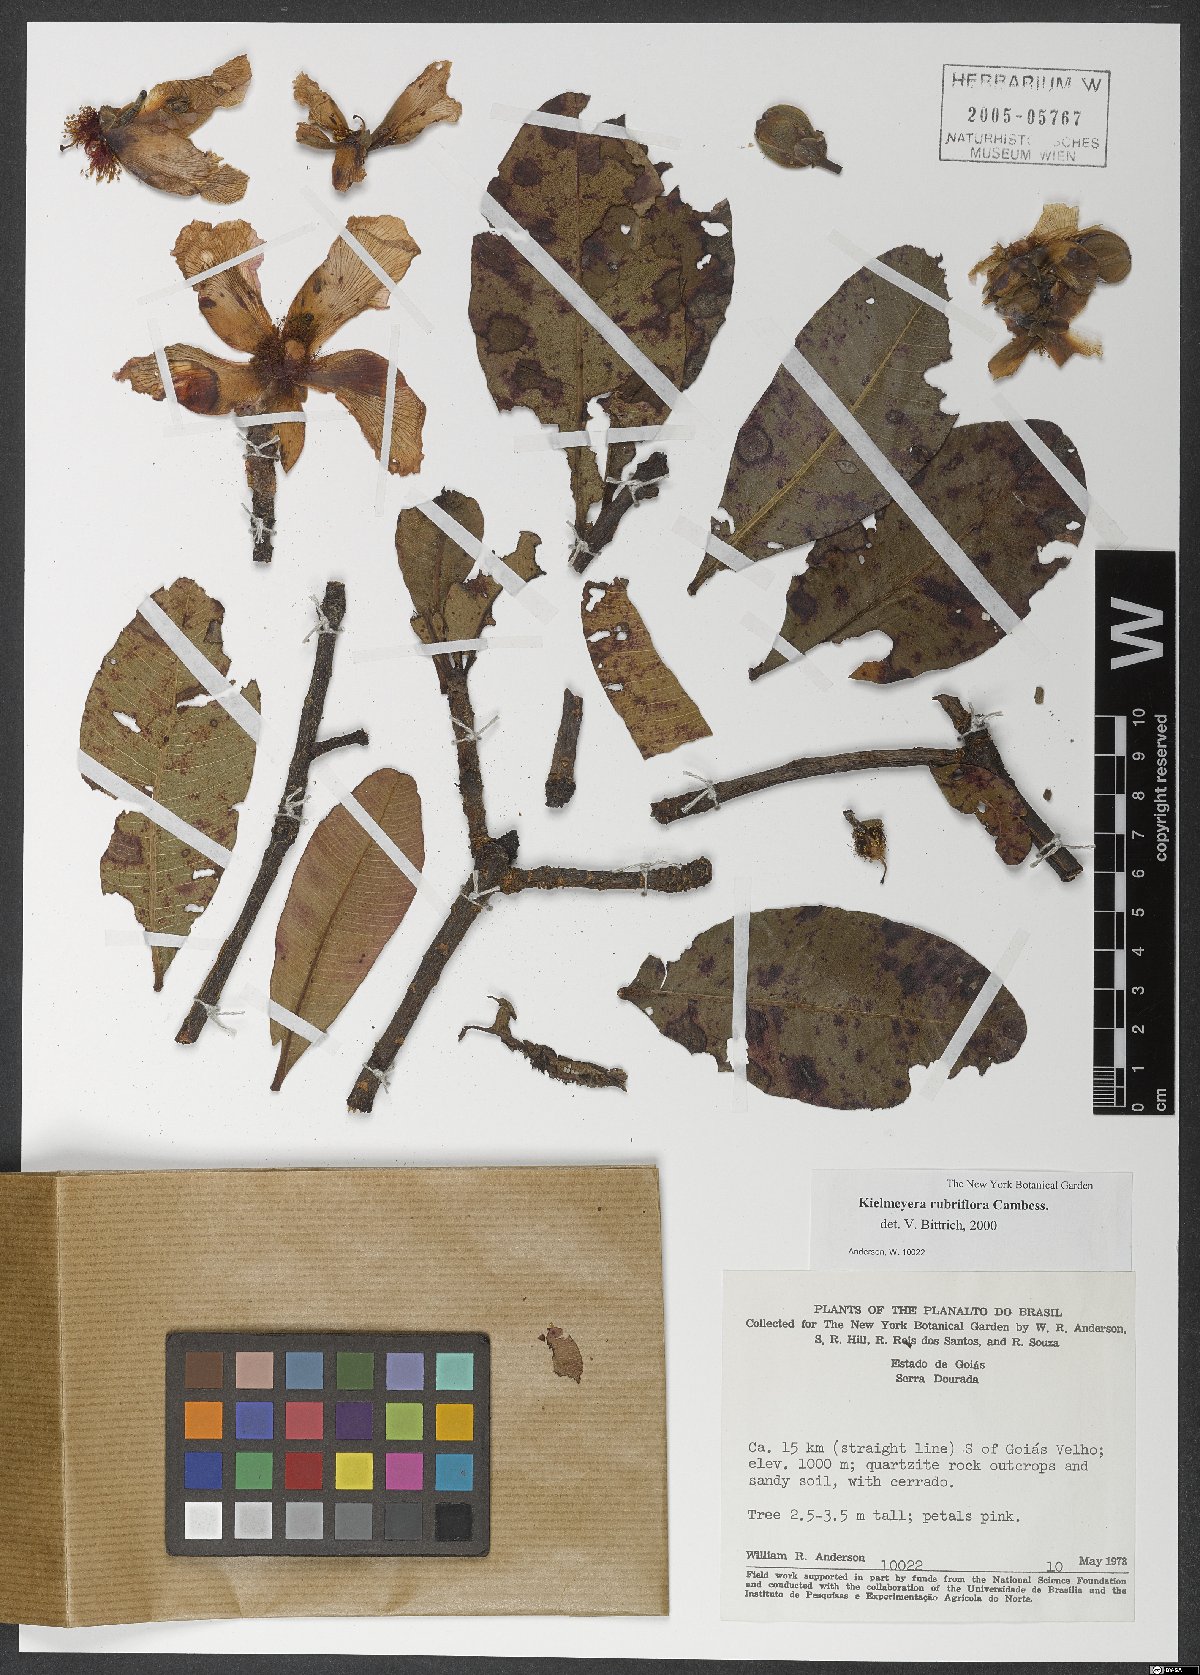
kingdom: Plantae
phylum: Tracheophyta
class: Magnoliopsida
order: Malpighiales
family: Calophyllaceae
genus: Kielmeyera
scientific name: Kielmeyera rubriflora
